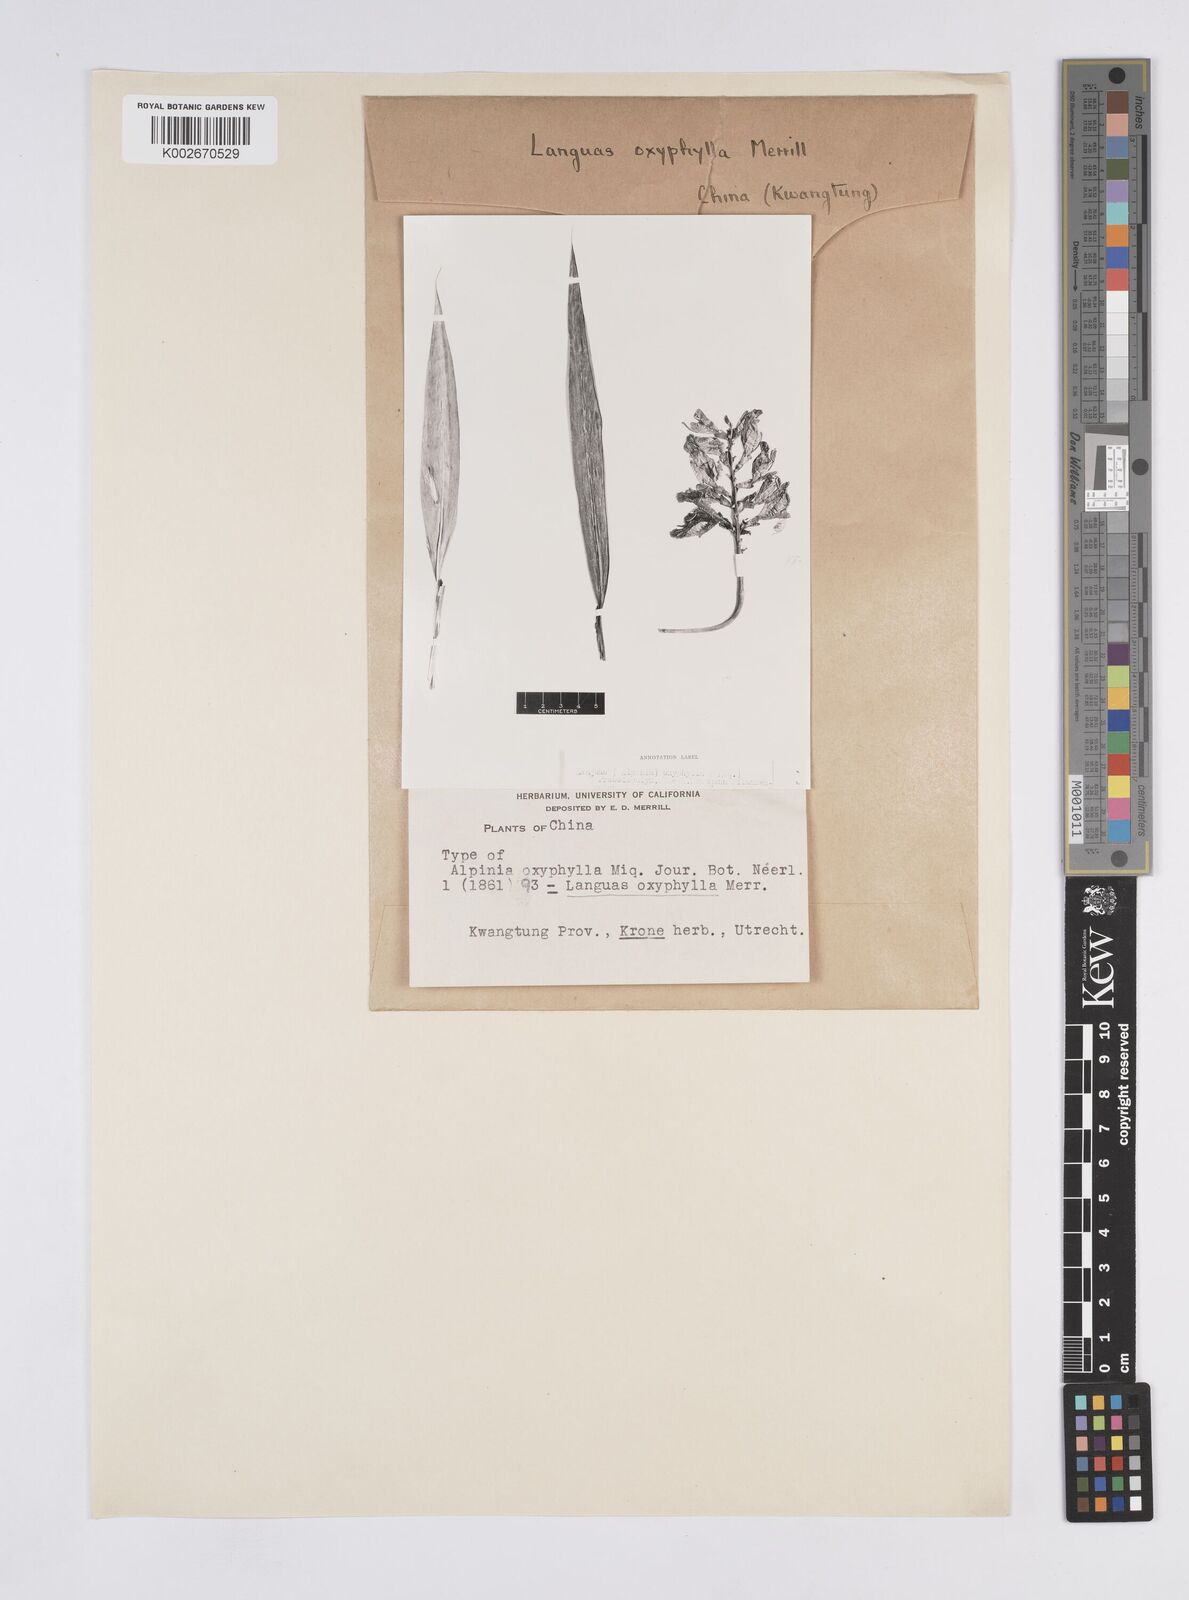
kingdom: Plantae
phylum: Tracheophyta
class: Liliopsida
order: Zingiberales
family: Zingiberaceae
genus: Alpinia
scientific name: Alpinia oxyphylla
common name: Sharp-leaf galangal
